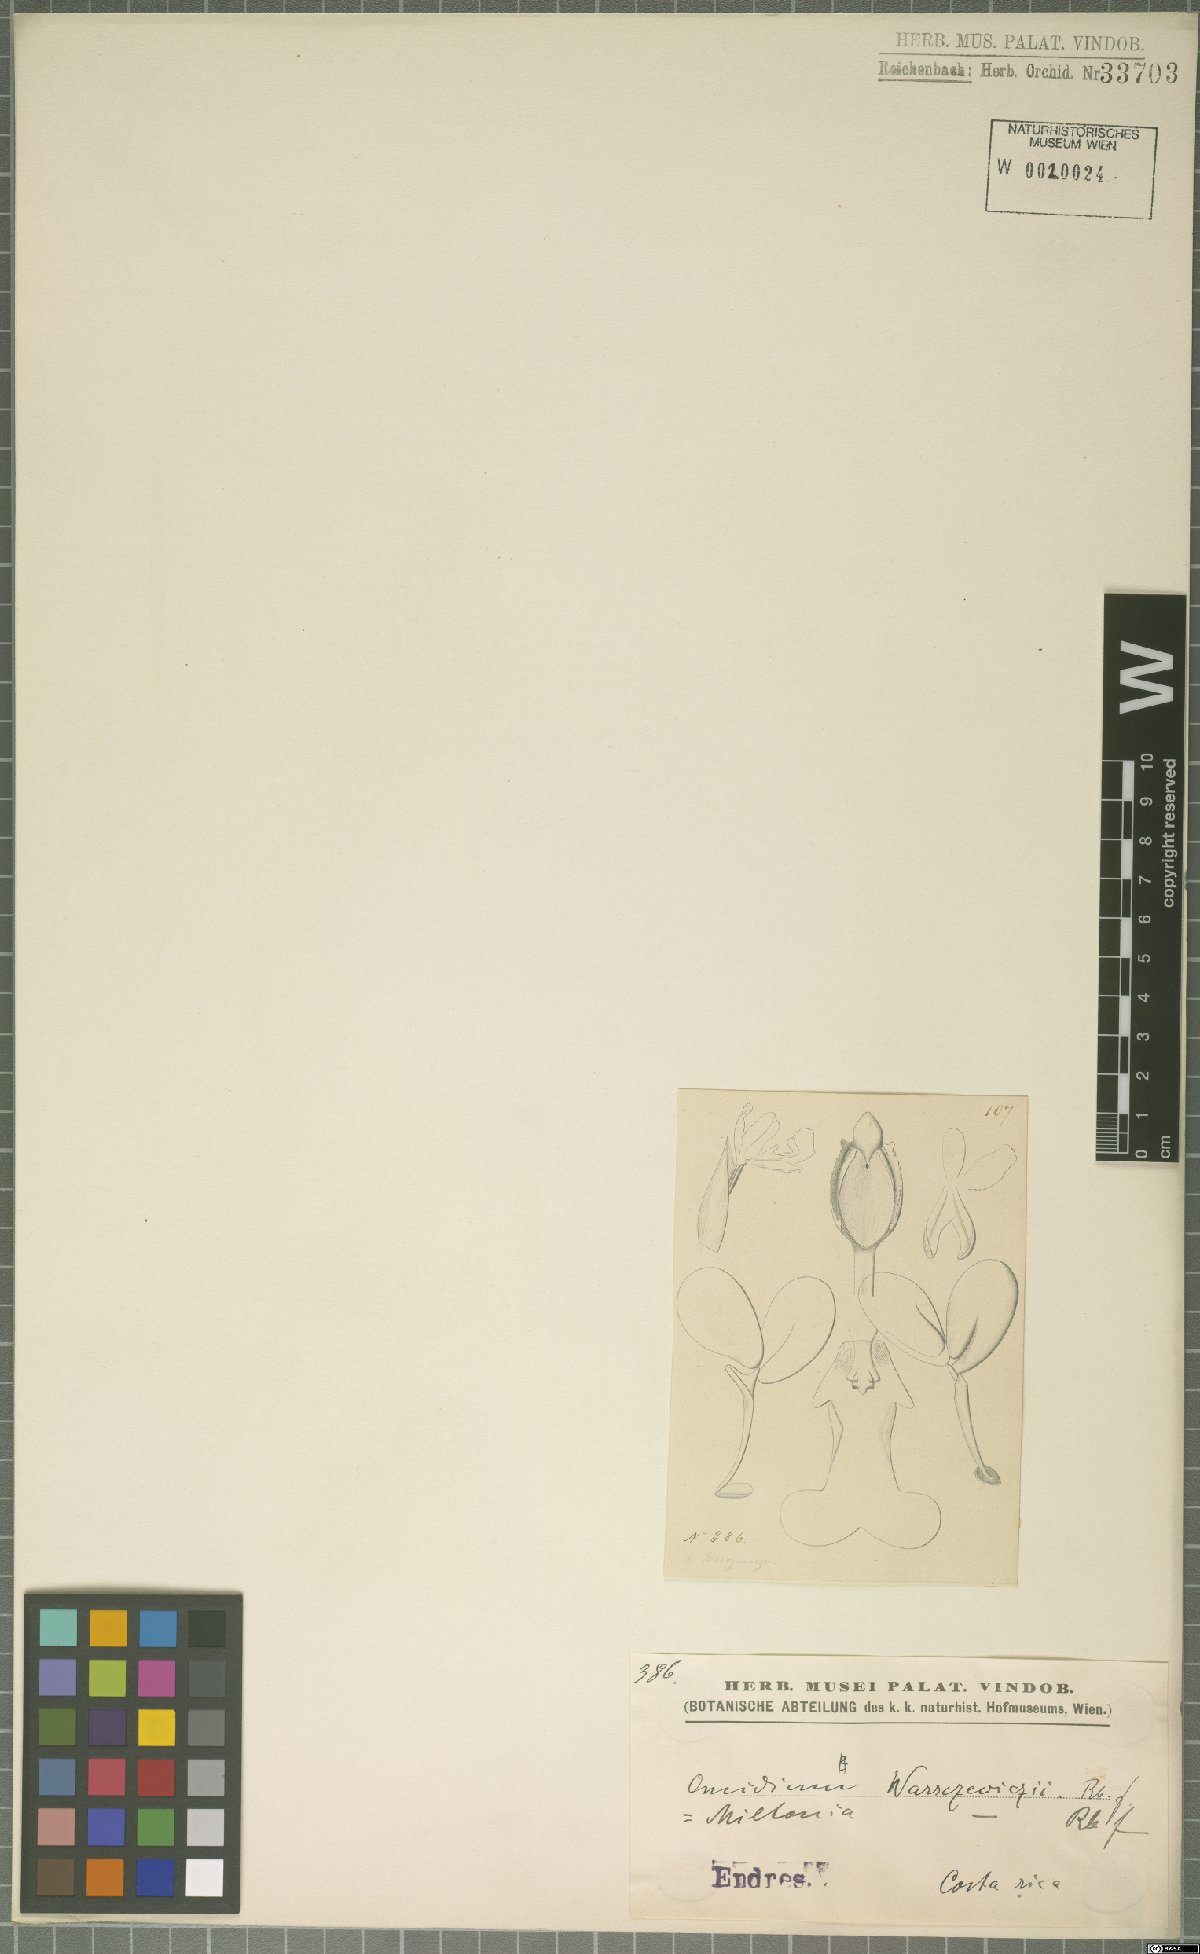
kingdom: Plantae
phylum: Tracheophyta
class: Liliopsida
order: Asparagales
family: Orchidaceae
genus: Oncidium
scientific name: Oncidium warszewiczii
